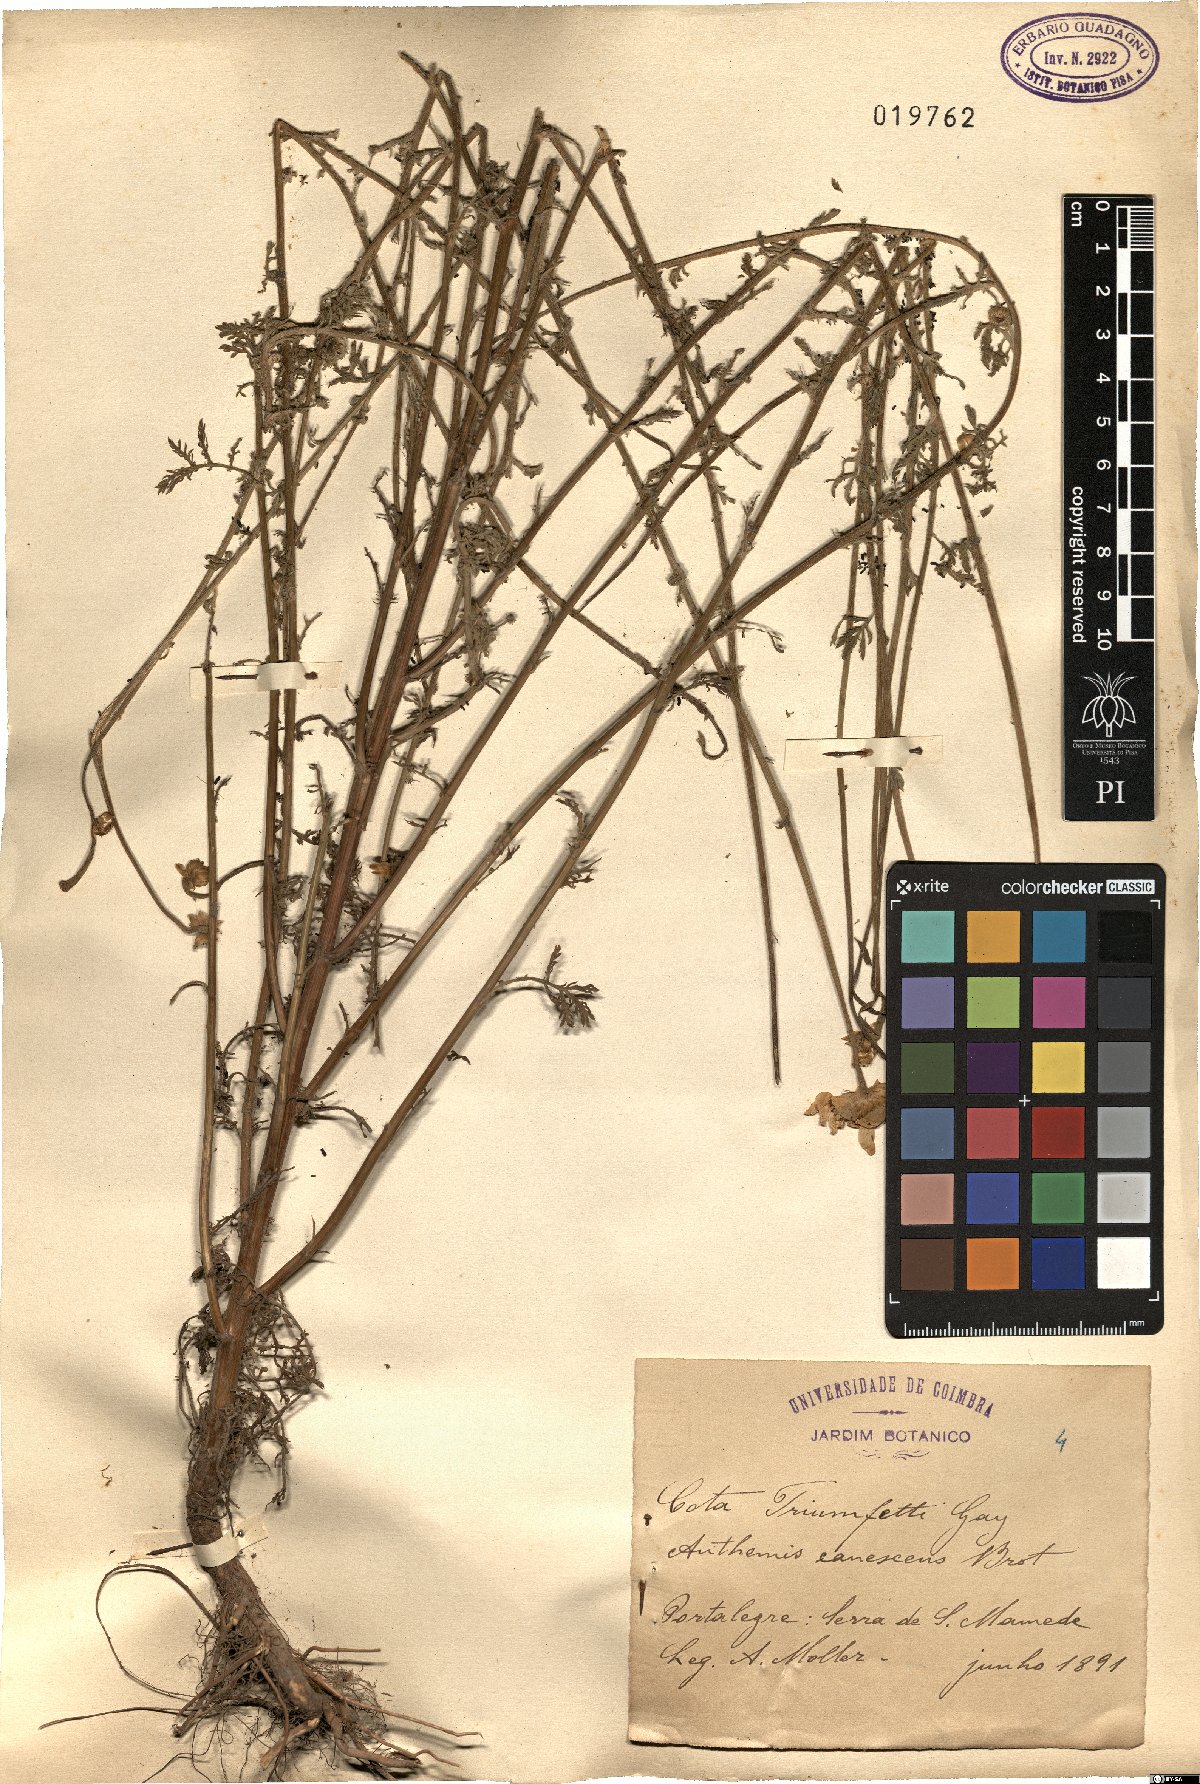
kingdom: Plantae
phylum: Tracheophyta
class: Magnoliopsida
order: Asterales
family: Asteraceae
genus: Cota
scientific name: Cota triumfetti
